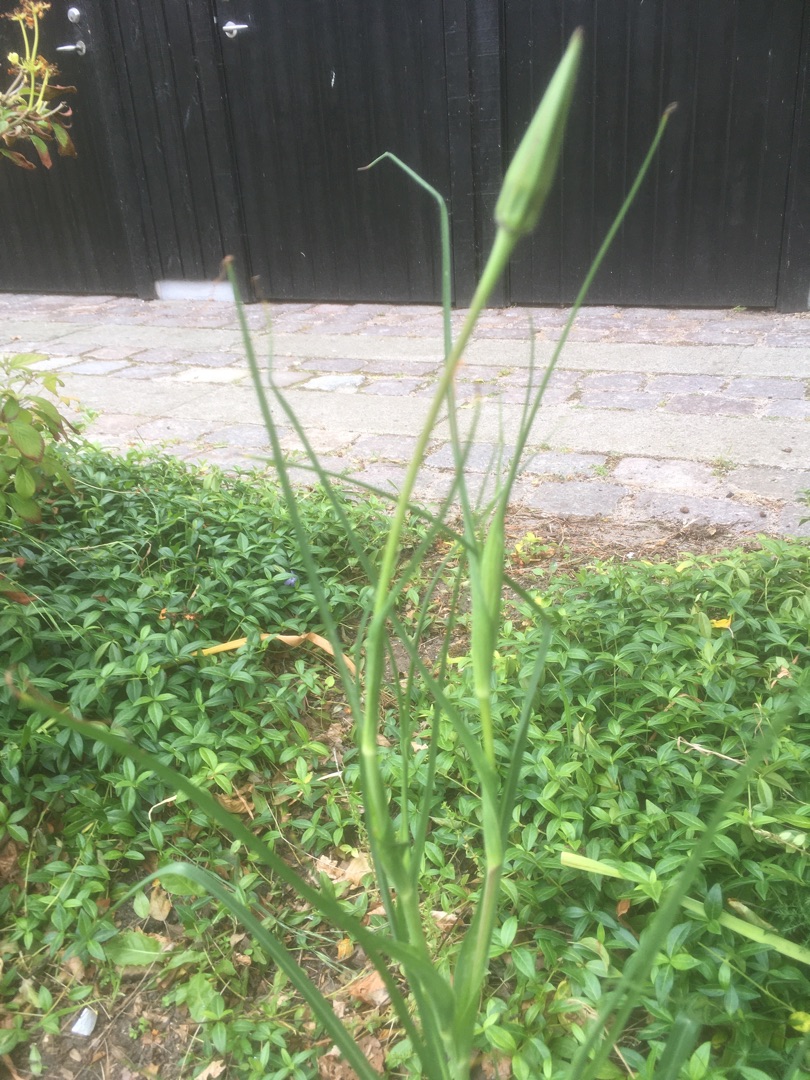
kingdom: Plantae
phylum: Tracheophyta
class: Magnoliopsida
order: Asterales
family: Asteraceae
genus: Tragopogon
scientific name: Tragopogon pratensis
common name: Gedeskæg
